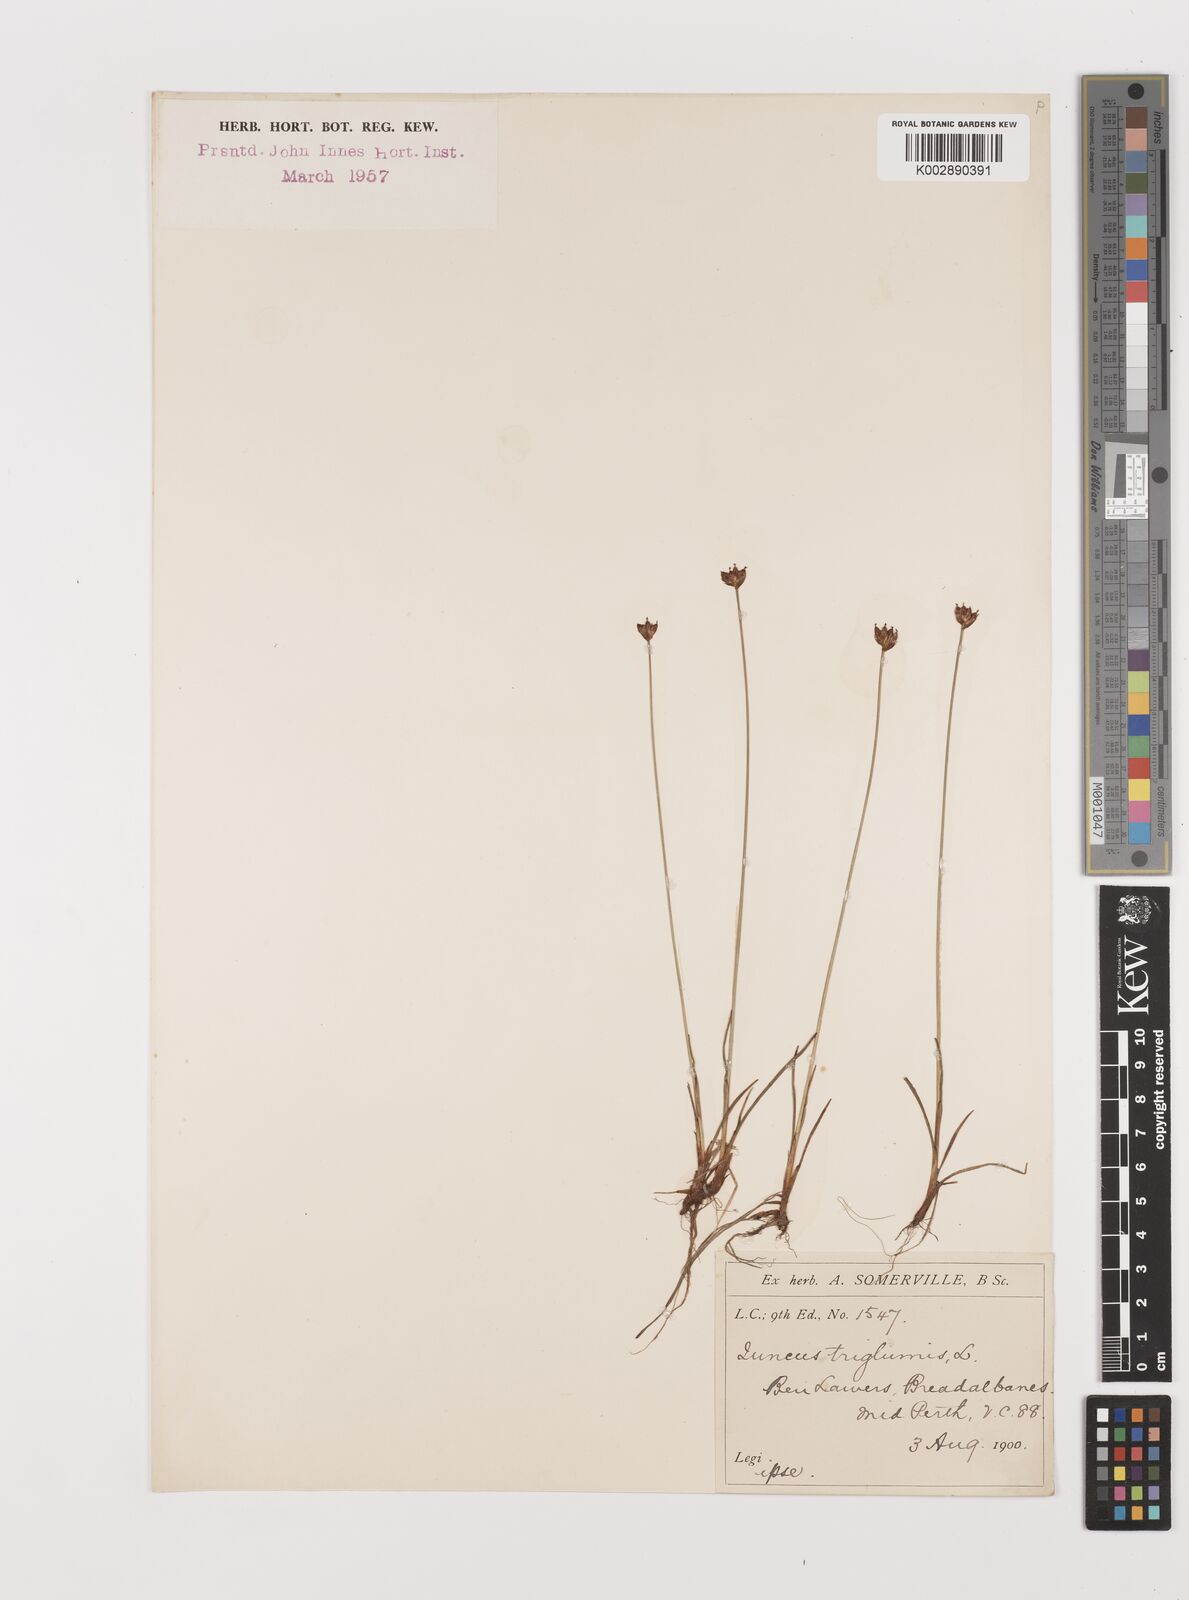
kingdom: Plantae
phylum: Tracheophyta
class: Liliopsida
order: Poales
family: Juncaceae
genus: Juncus
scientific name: Juncus triglumis
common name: Three-flowered rush
